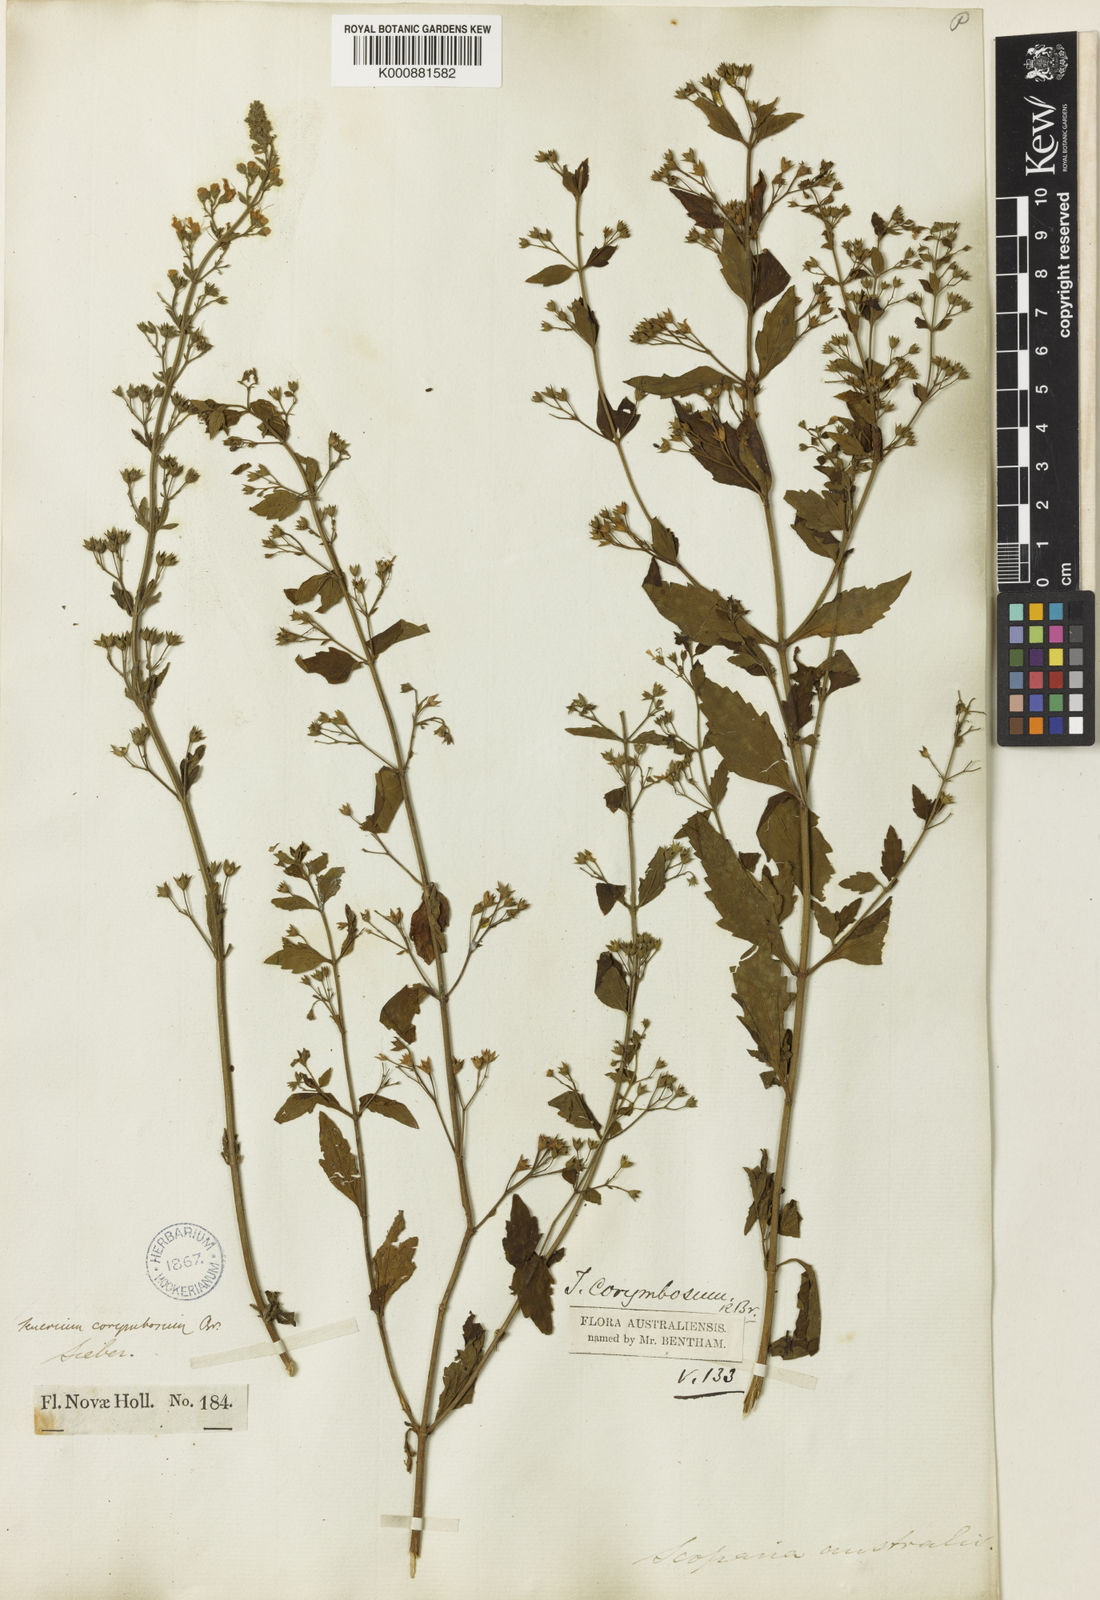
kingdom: Plantae
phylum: Tracheophyta
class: Magnoliopsida
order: Lamiales
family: Lamiaceae
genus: Teucrium
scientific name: Teucrium corymbosum
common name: Forest germander
